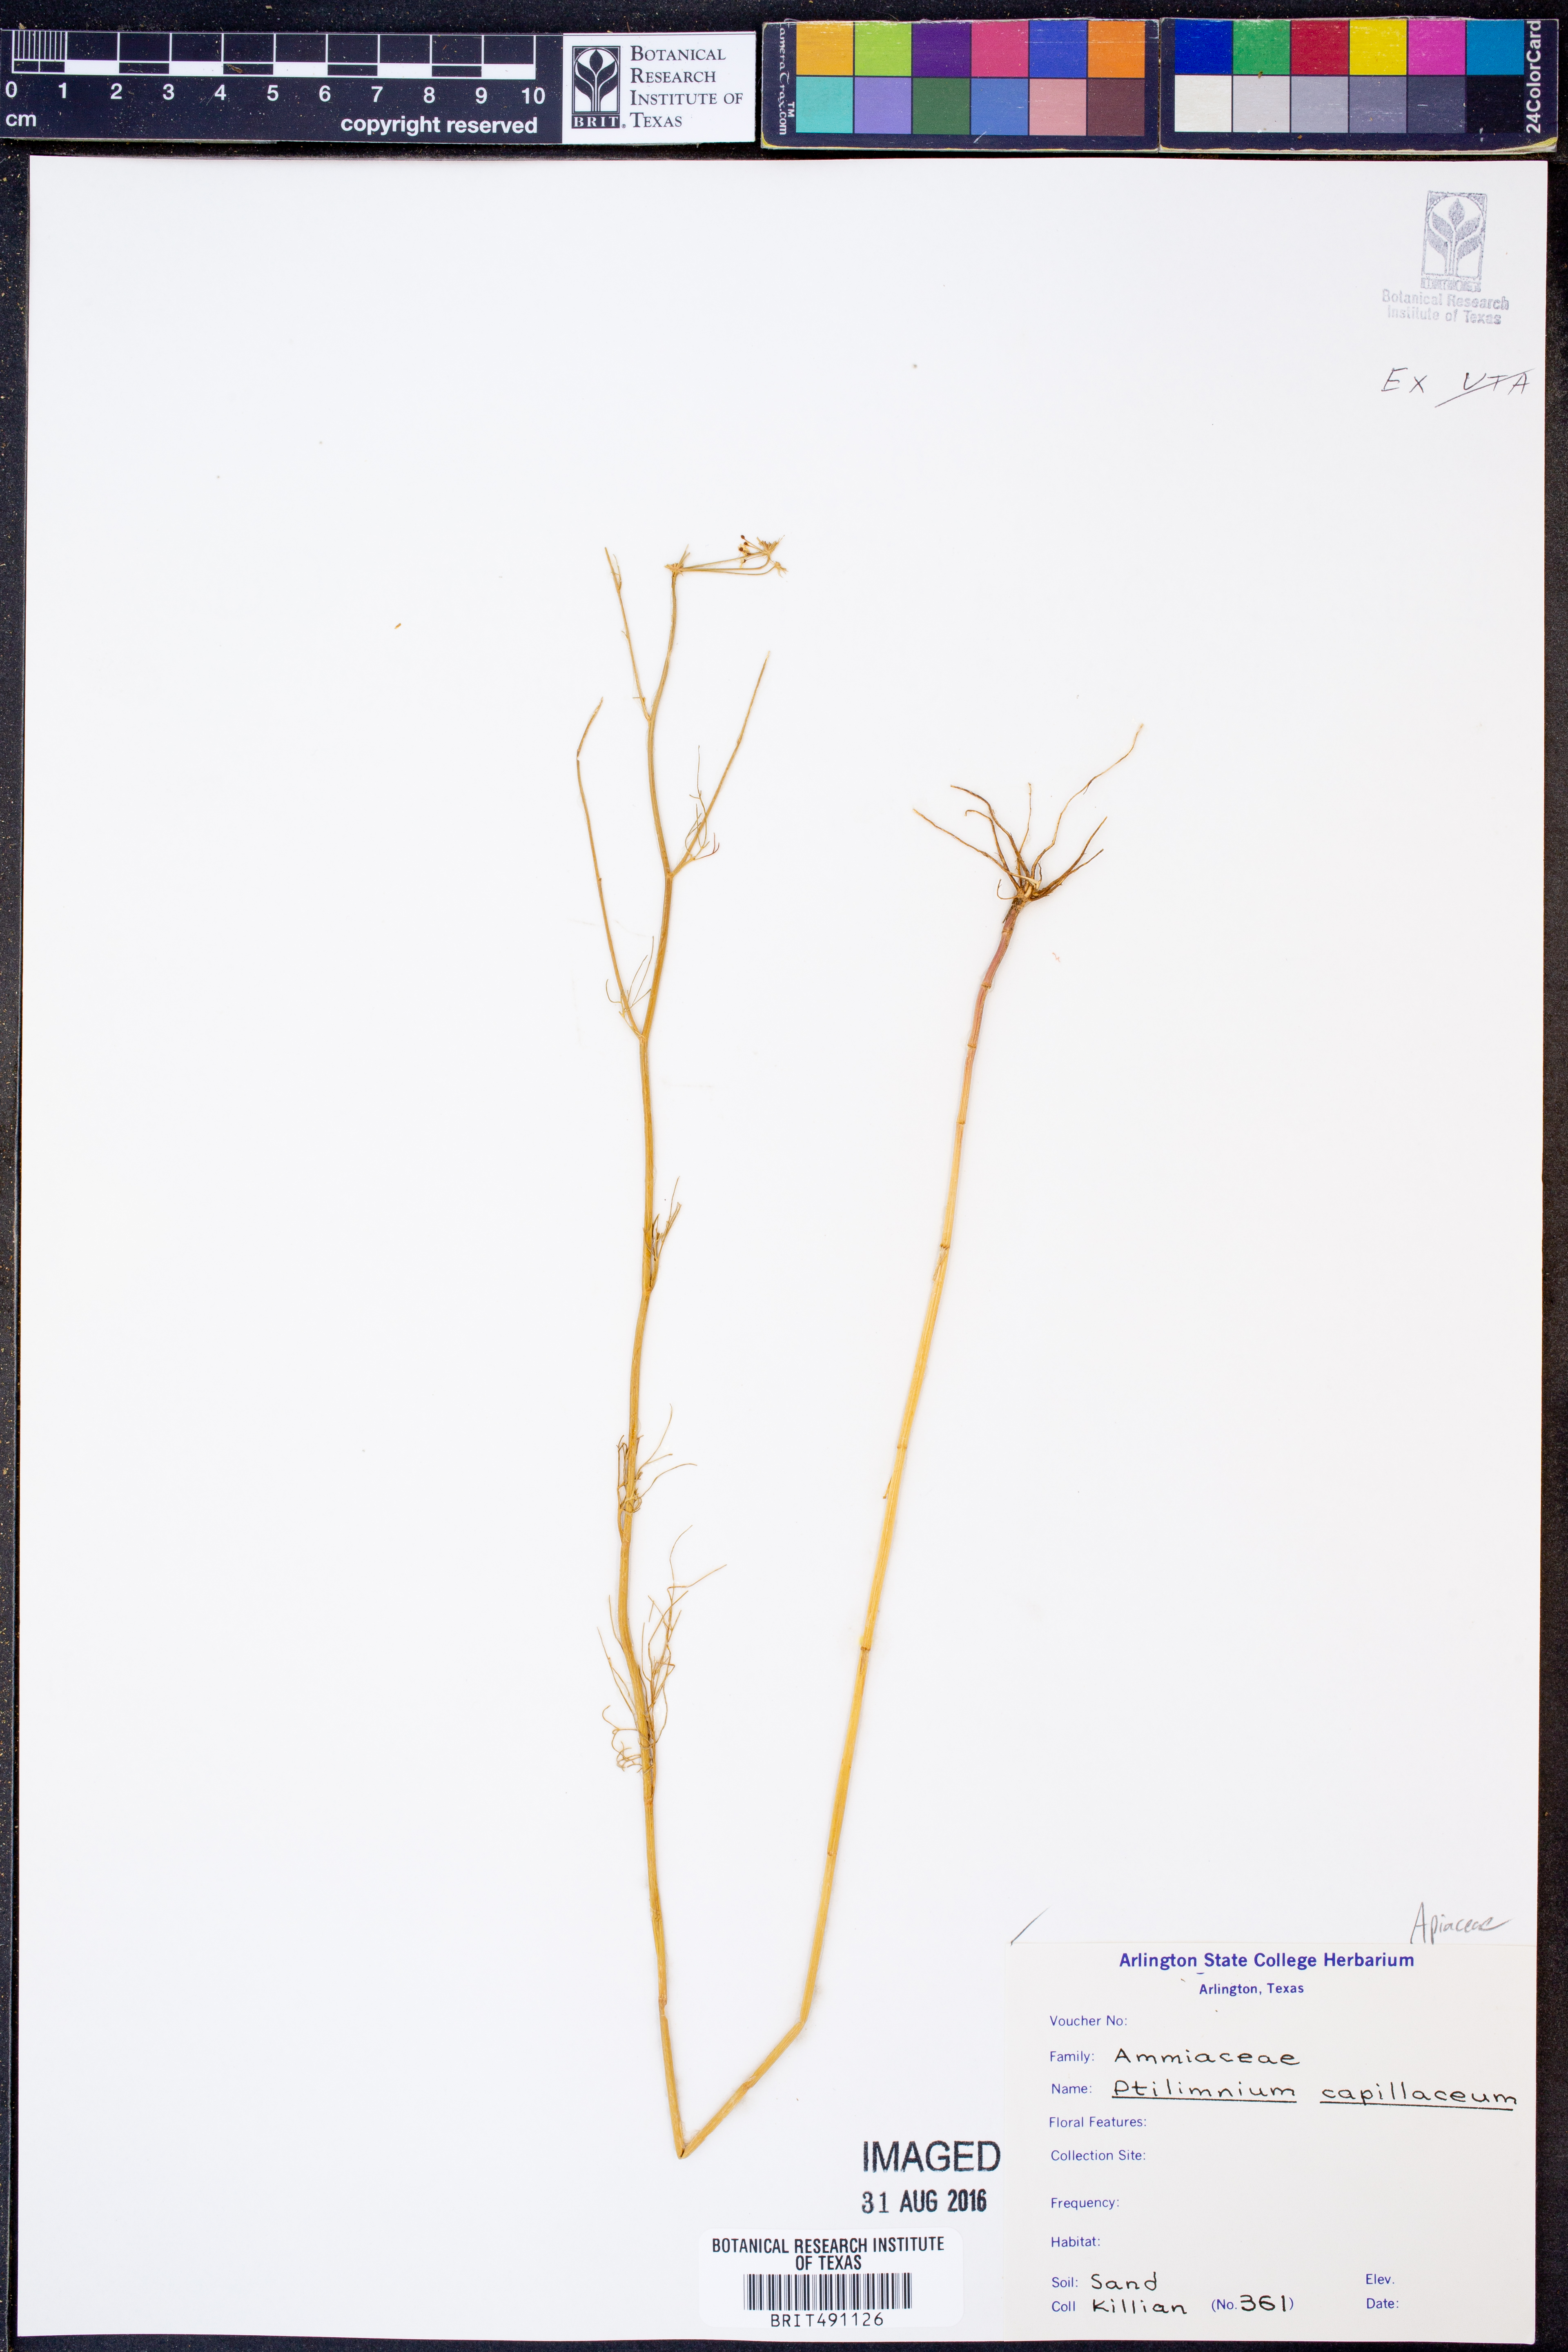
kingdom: Plantae
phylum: Tracheophyta
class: Magnoliopsida
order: Apiales
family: Apiaceae
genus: Ptilimnium
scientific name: Ptilimnium capillaceum
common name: Herbwilliam
